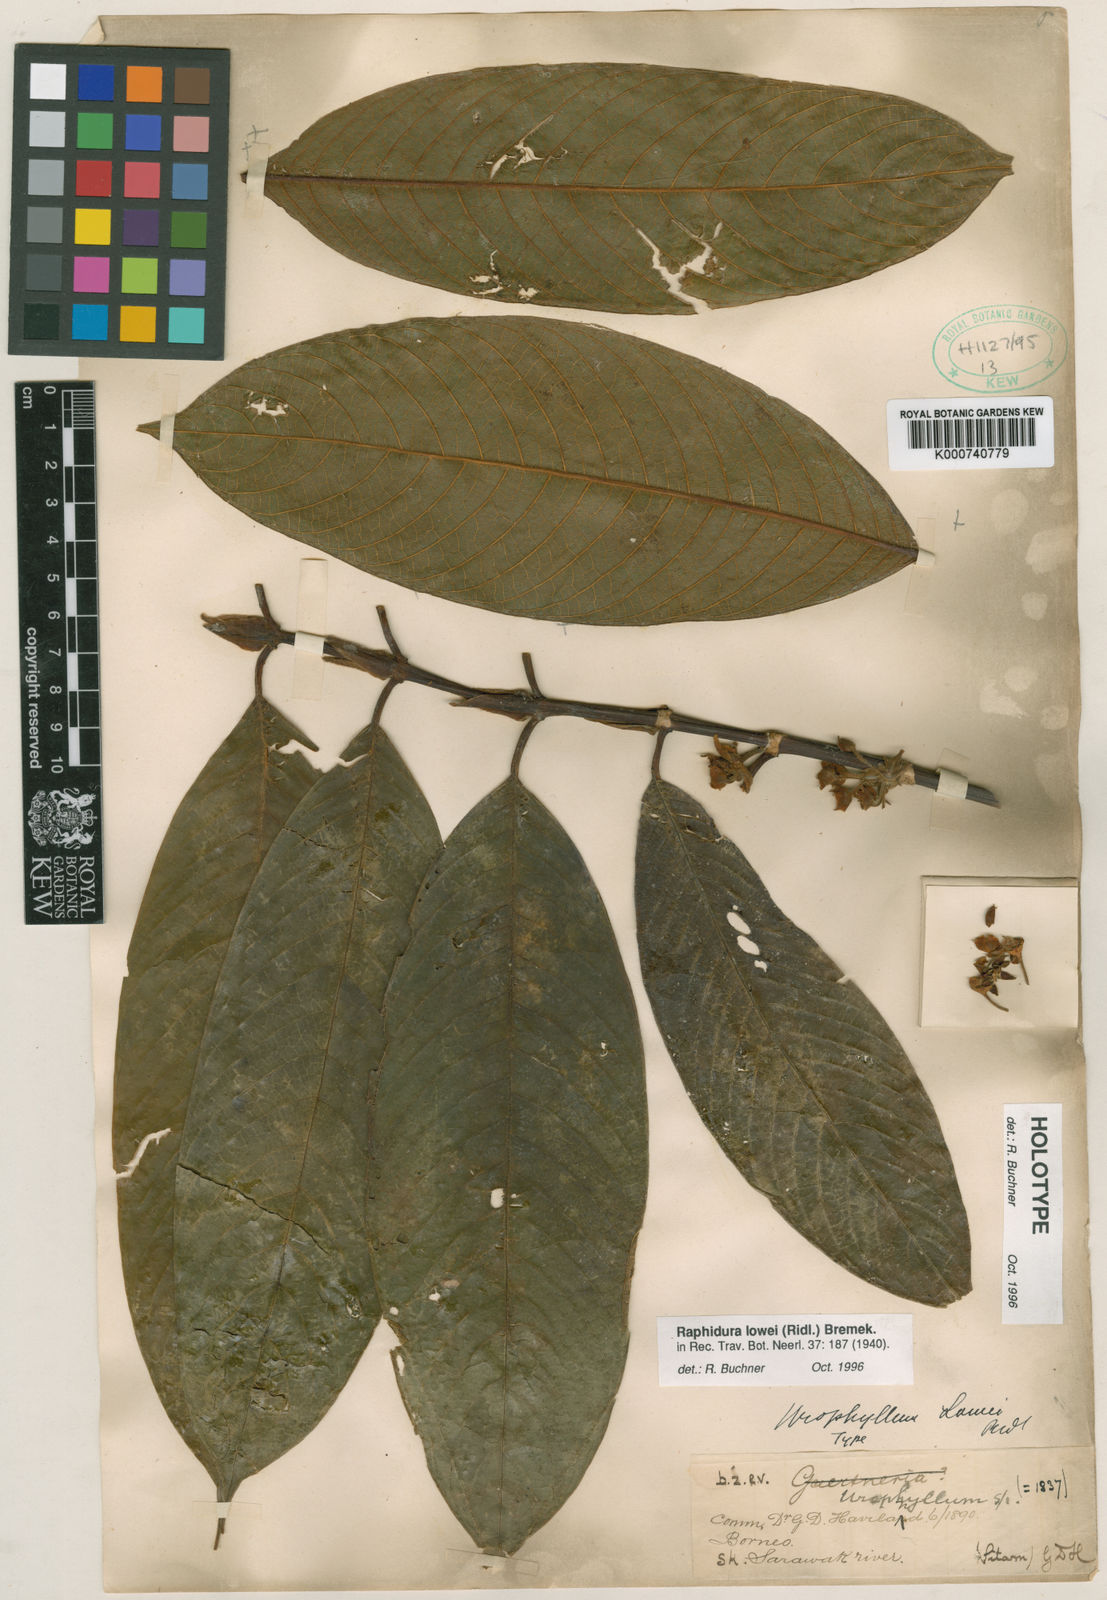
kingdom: Plantae
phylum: Tracheophyta
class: Magnoliopsida
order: Gentianales
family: Rubiaceae
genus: Rhaphidura
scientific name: Rhaphidura lowii
